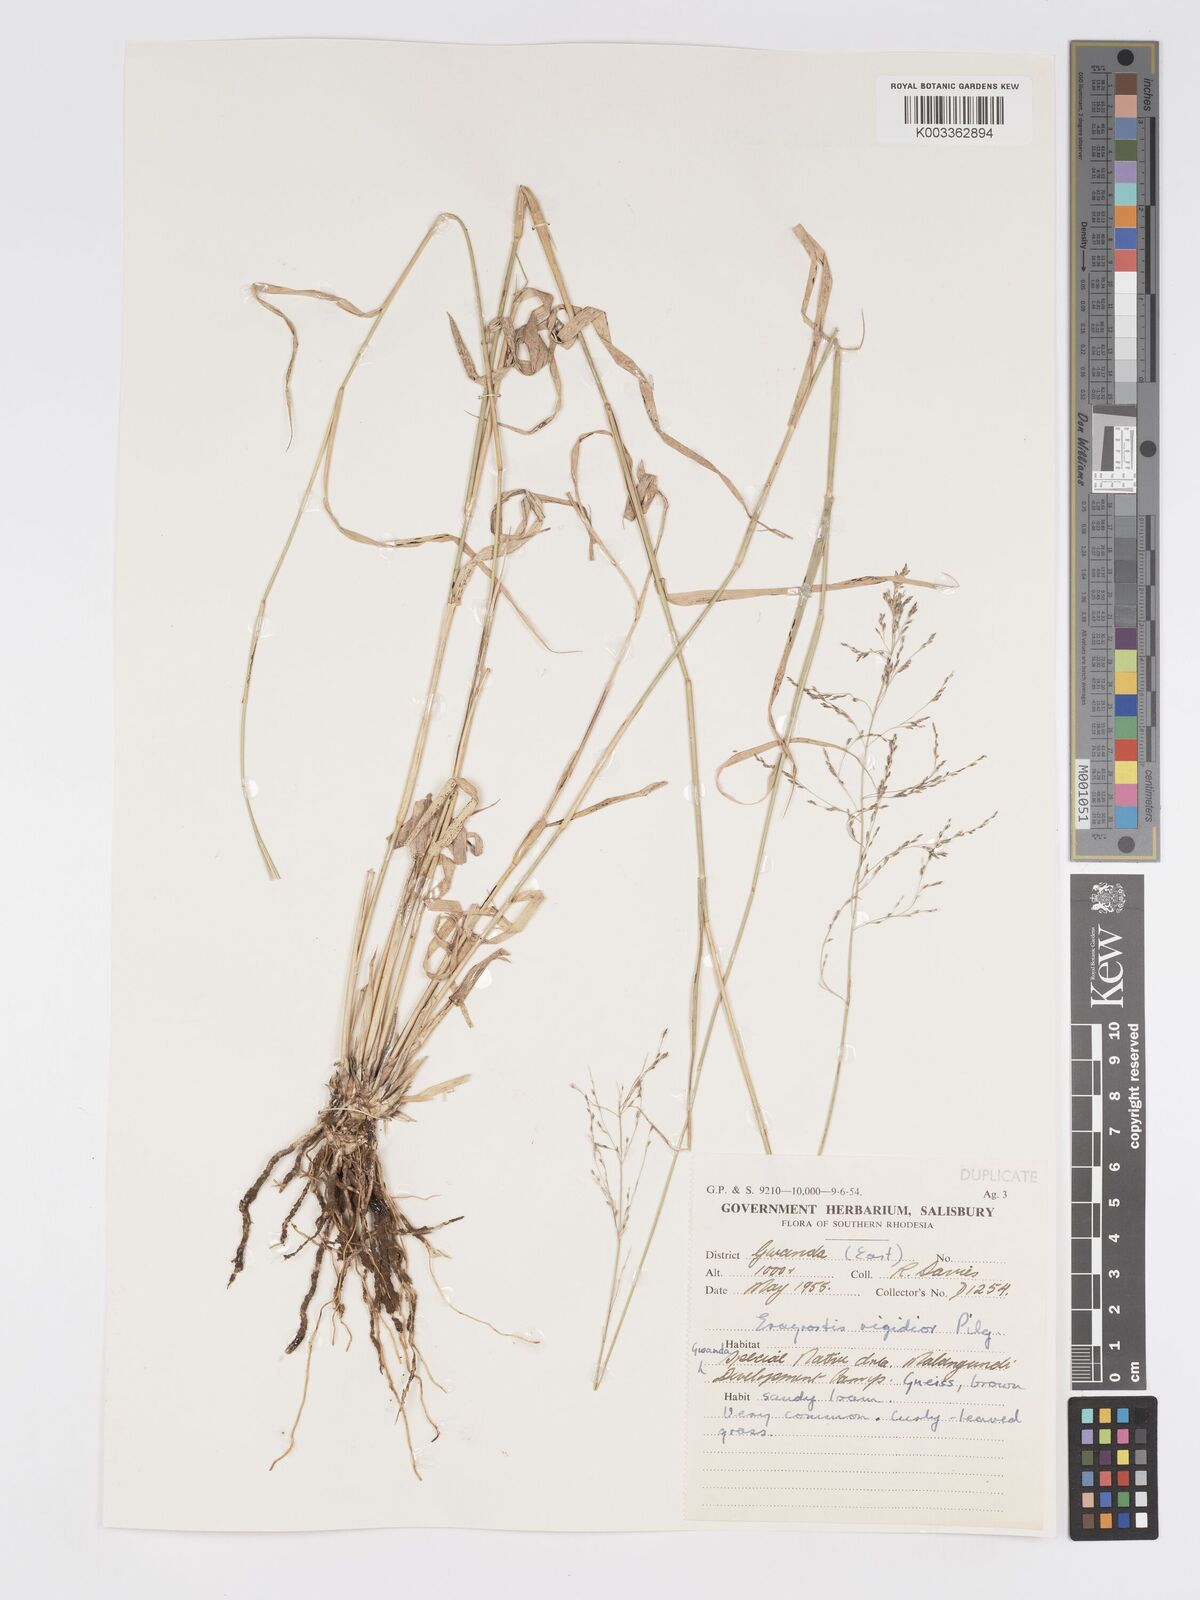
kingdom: Plantae
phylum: Tracheophyta
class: Liliopsida
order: Poales
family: Poaceae
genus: Eragrostis
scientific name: Eragrostis cylindriflora
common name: Cylinderflower lovegrass
